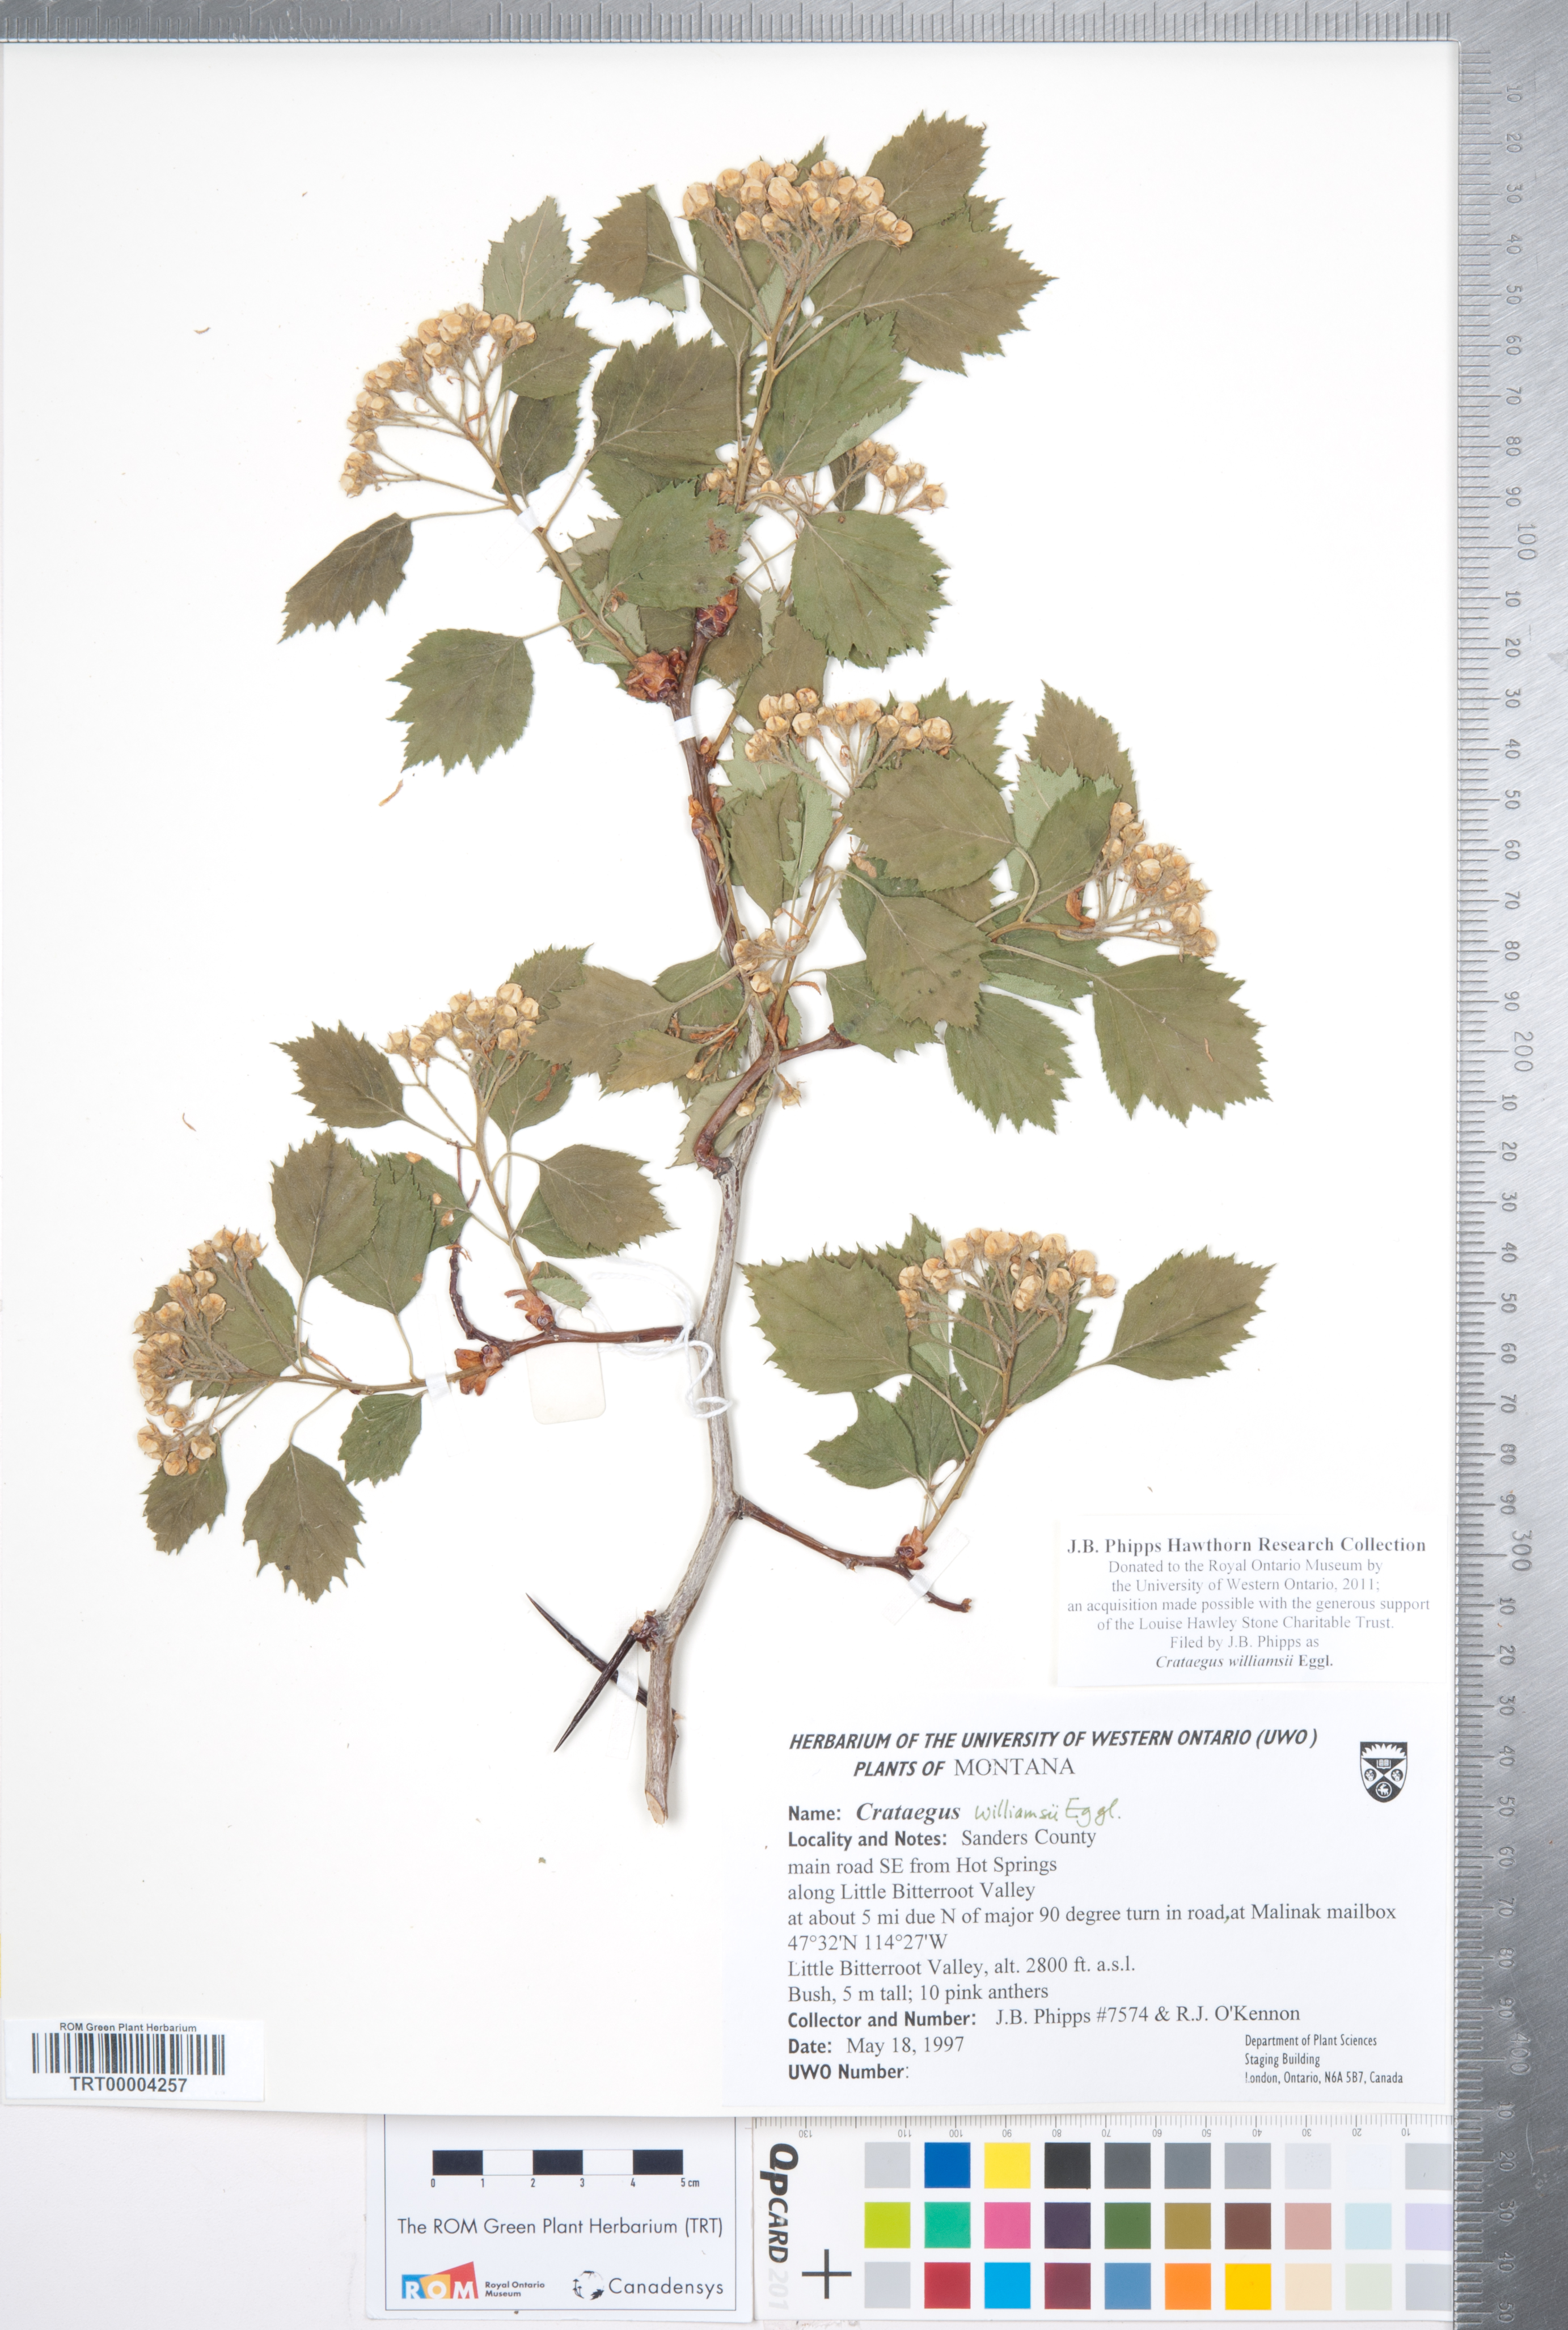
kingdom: Plantae
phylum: Tracheophyta
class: Magnoliopsida
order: Rosales
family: Rosaceae
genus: Crataegus
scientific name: Crataegus williamsii
